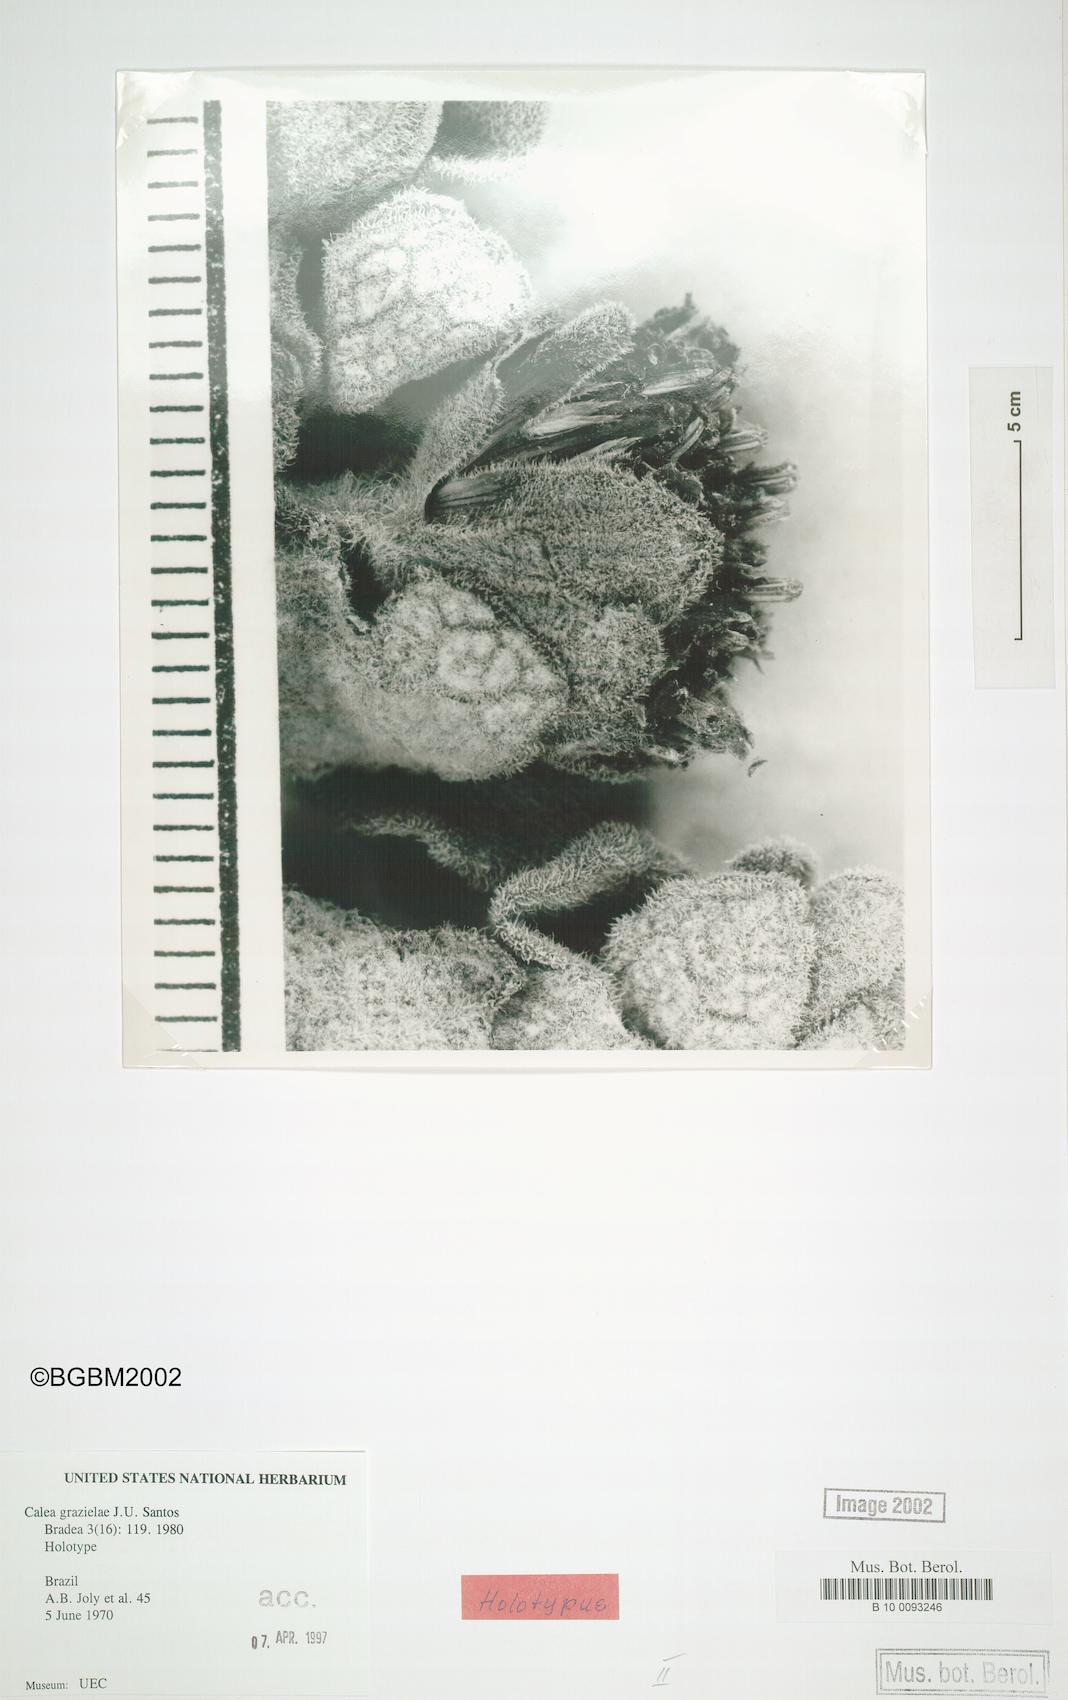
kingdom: Plantae
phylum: Tracheophyta
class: Magnoliopsida
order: Asterales
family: Asteraceae
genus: Calea
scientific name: Calea grazielae
